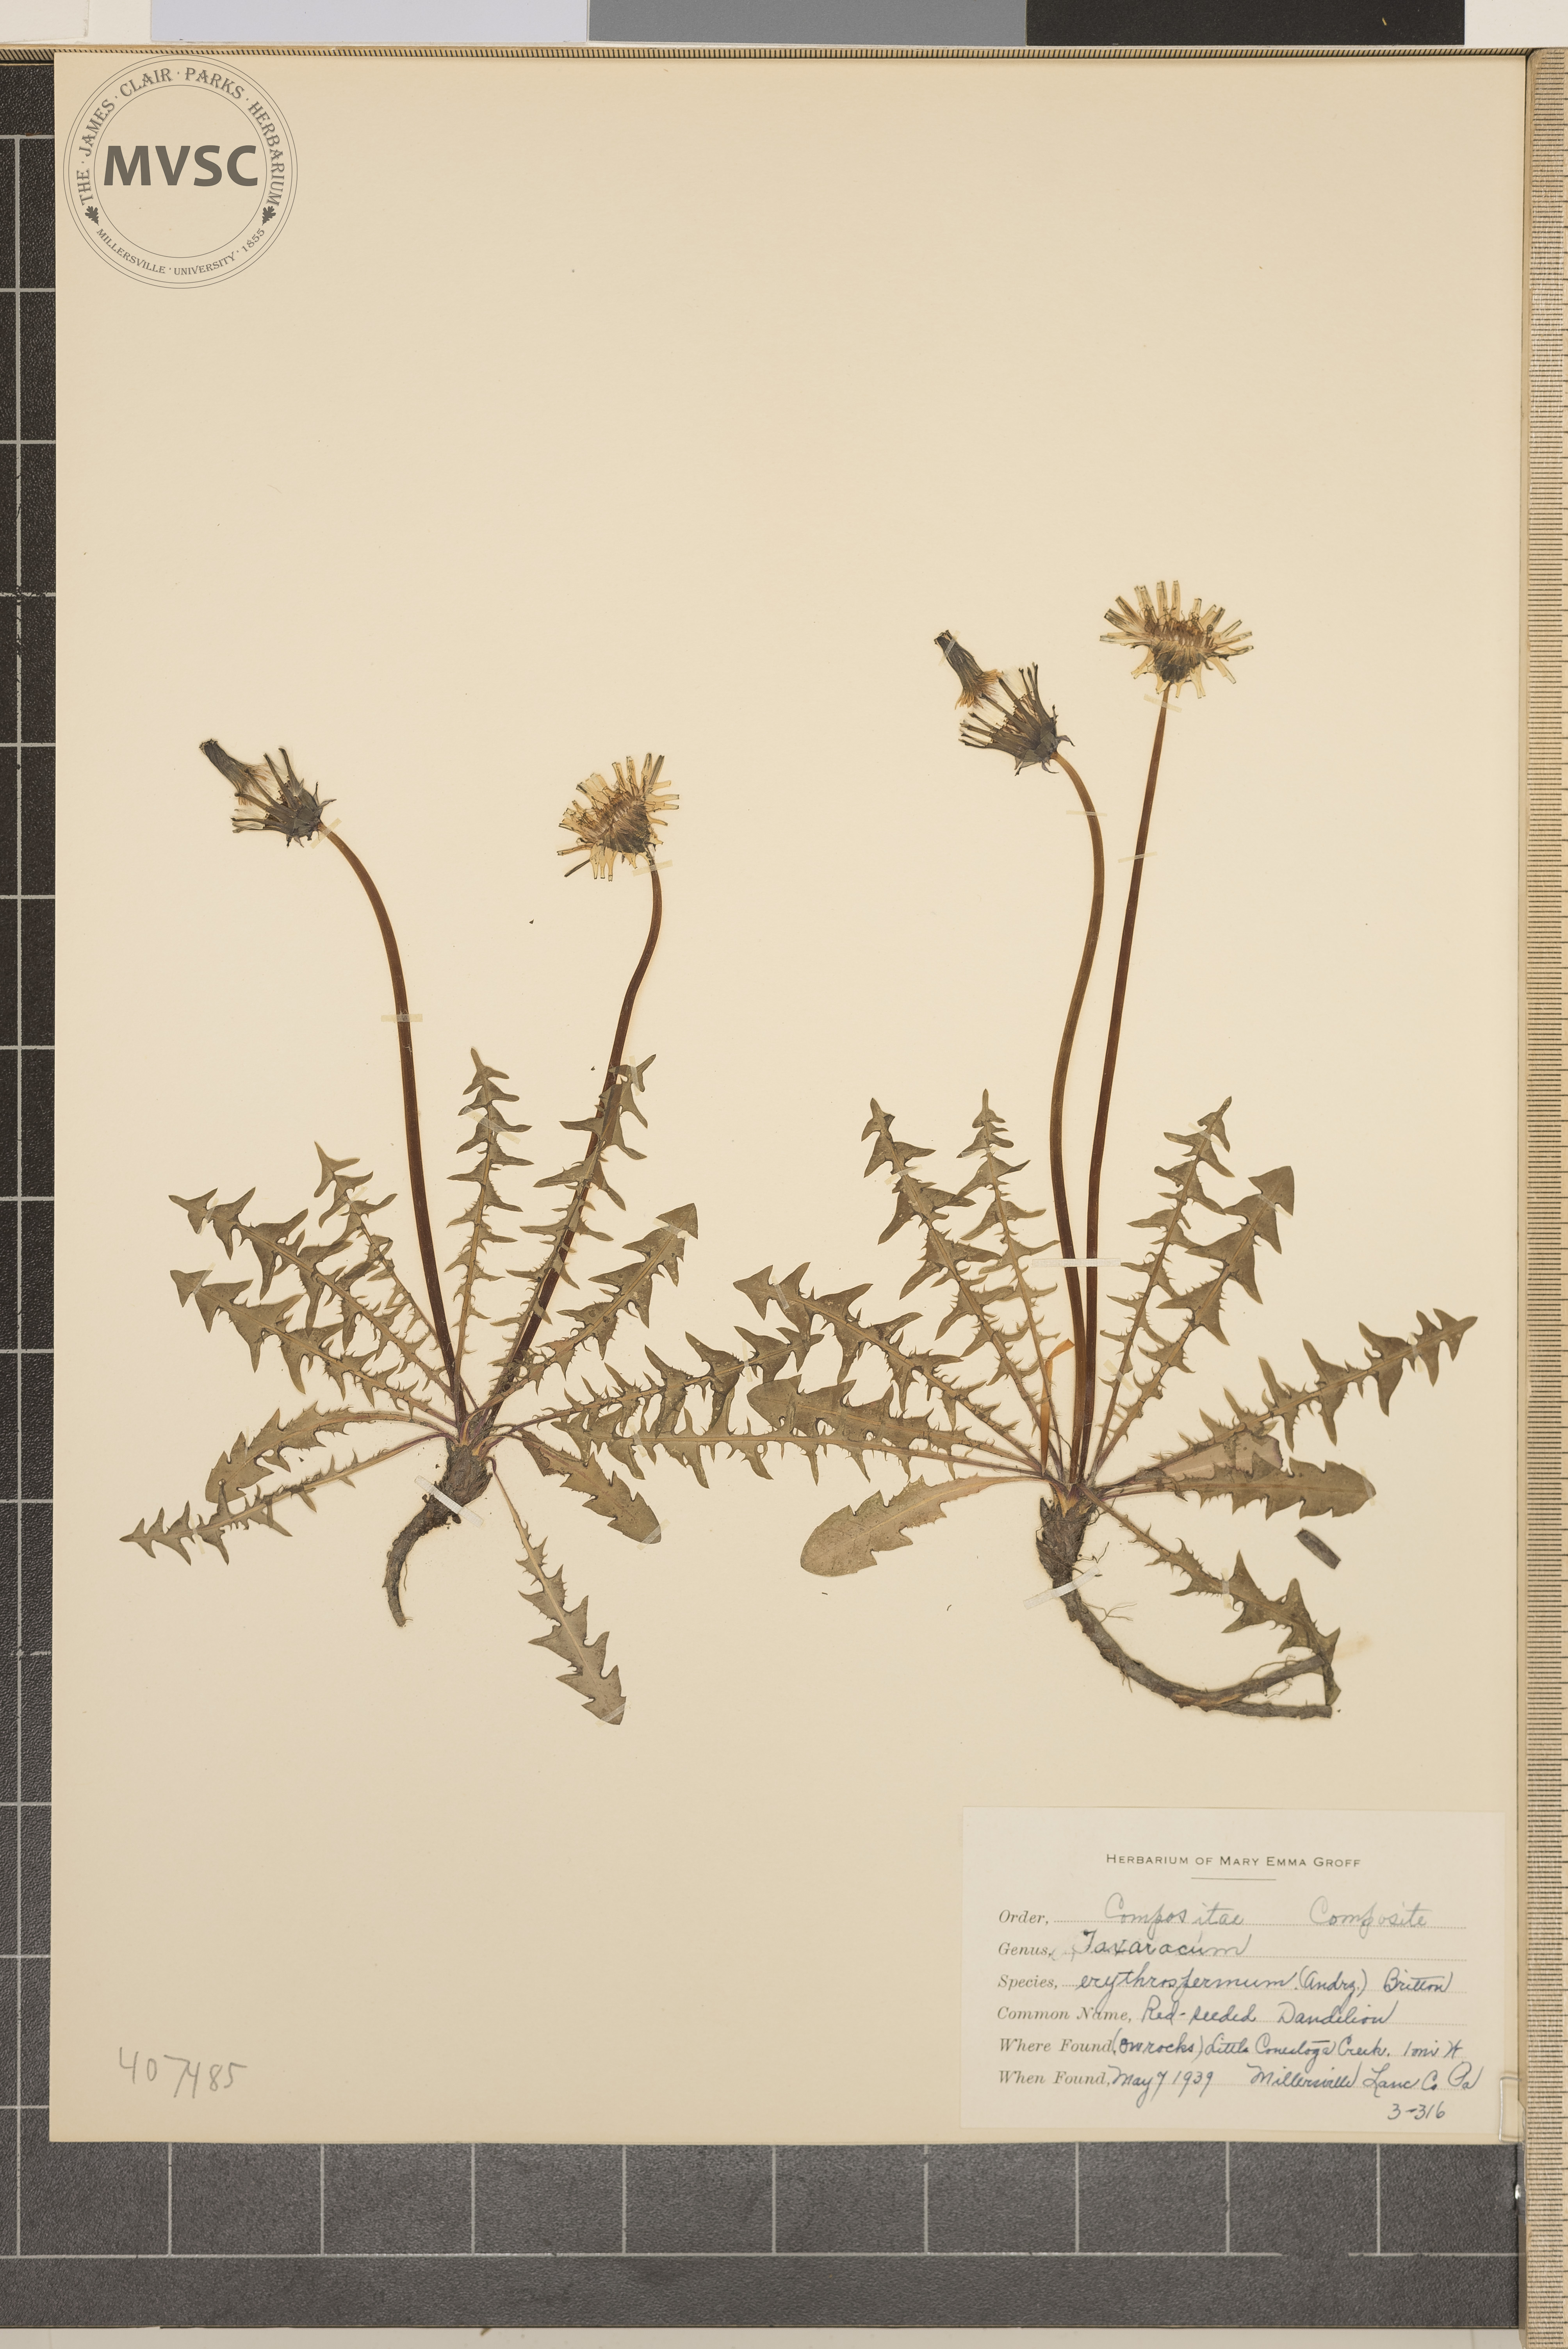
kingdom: Plantae
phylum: Tracheophyta
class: Magnoliopsida
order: Asterales
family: Asteraceae
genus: Taraxacum
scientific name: Taraxacum erythrospermum
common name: Red-seeded Dandelion
